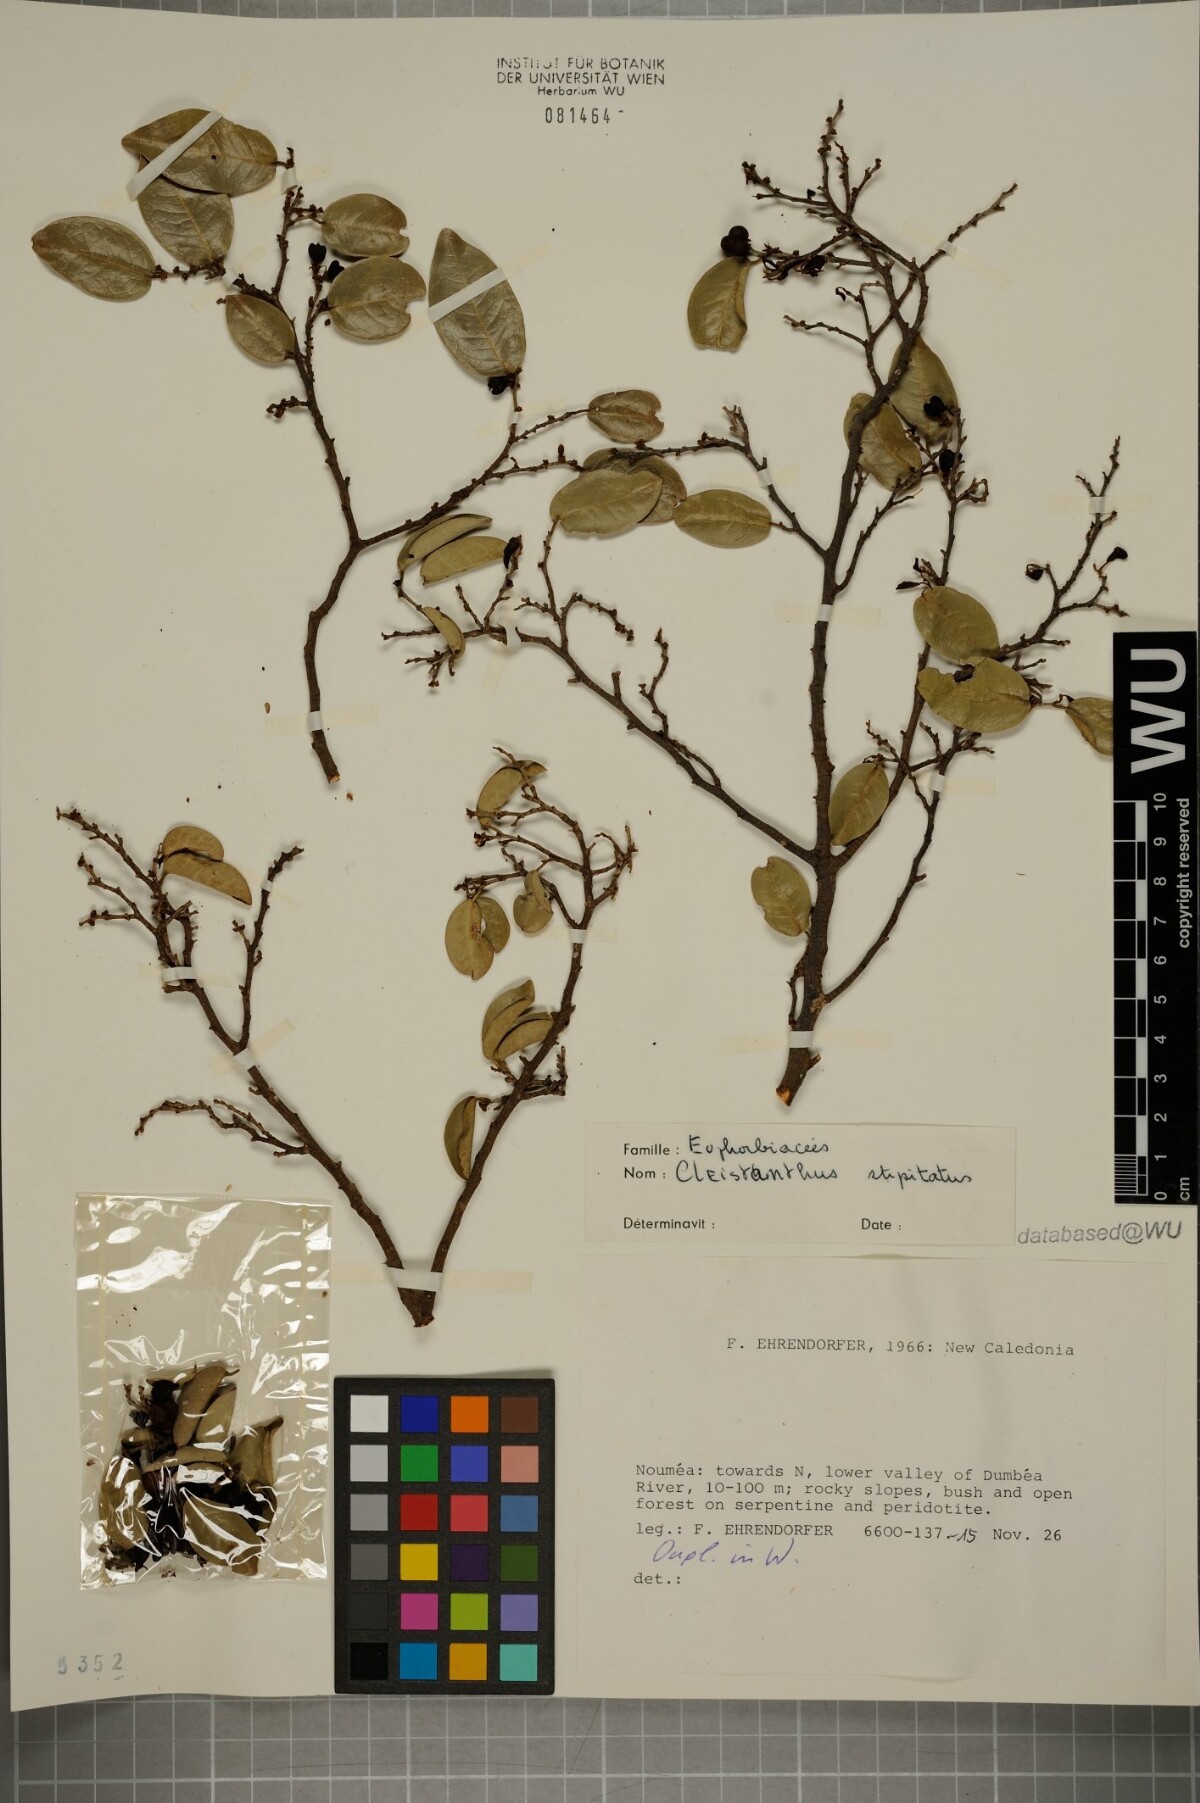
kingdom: Plantae
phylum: Tracheophyta
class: Magnoliopsida
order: Malpighiales
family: Phyllanthaceae
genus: Cleistanthus
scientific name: Cleistanthus stipitatus
